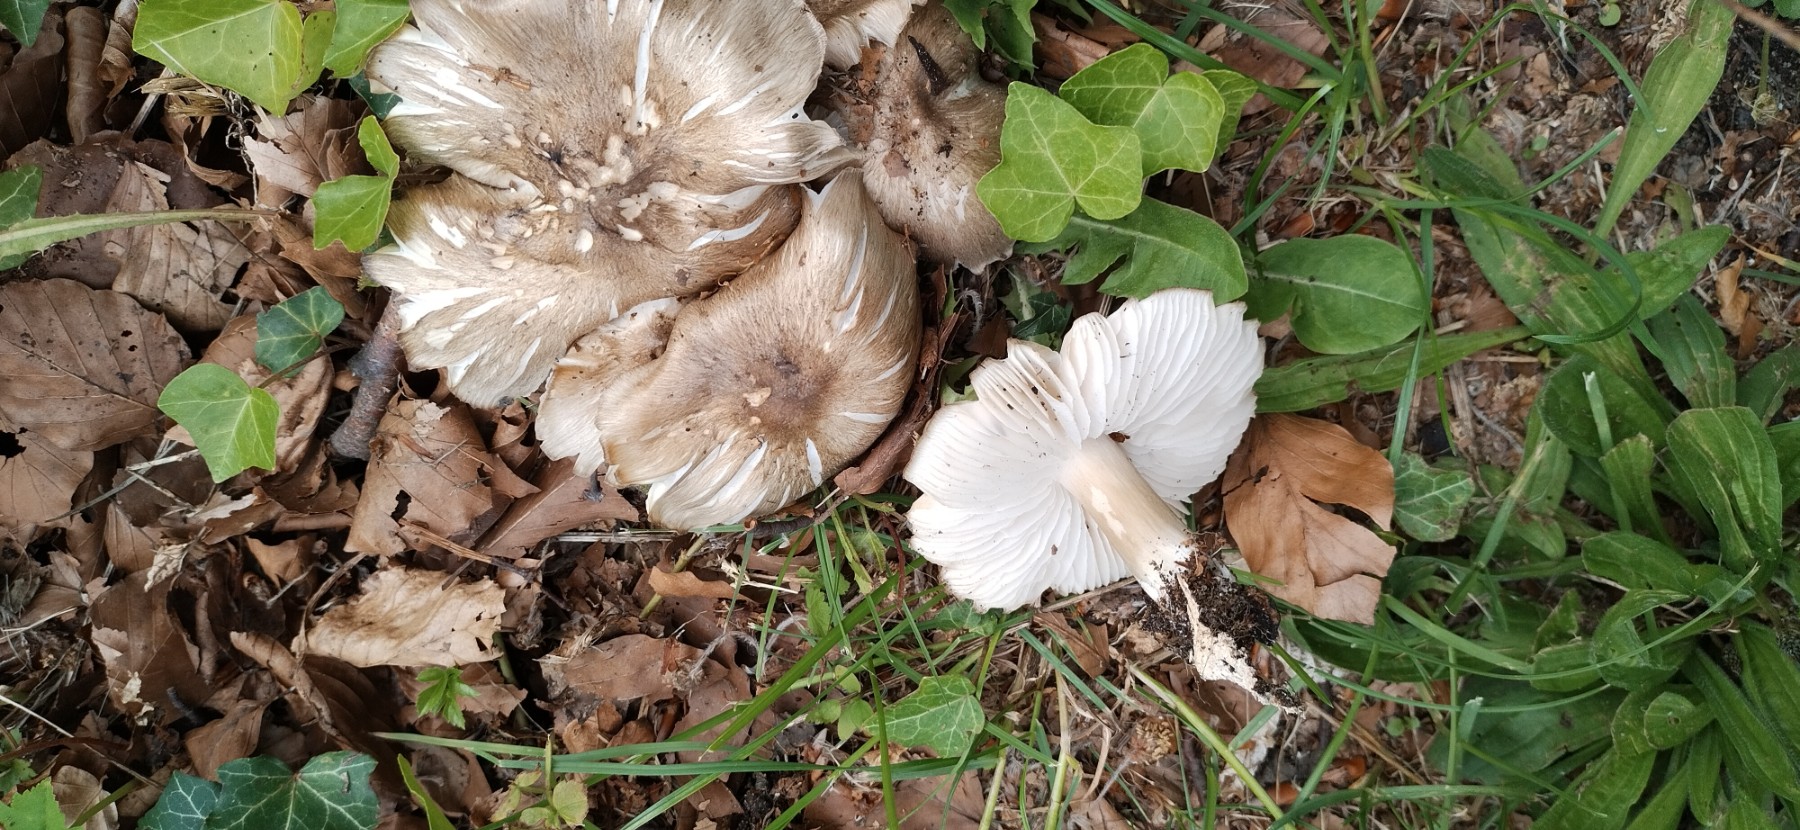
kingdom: Fungi
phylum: Basidiomycota
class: Agaricomycetes
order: Agaricales
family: Tricholomataceae
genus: Megacollybia
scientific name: Megacollybia platyphylla
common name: bredbladet væbnerhat
